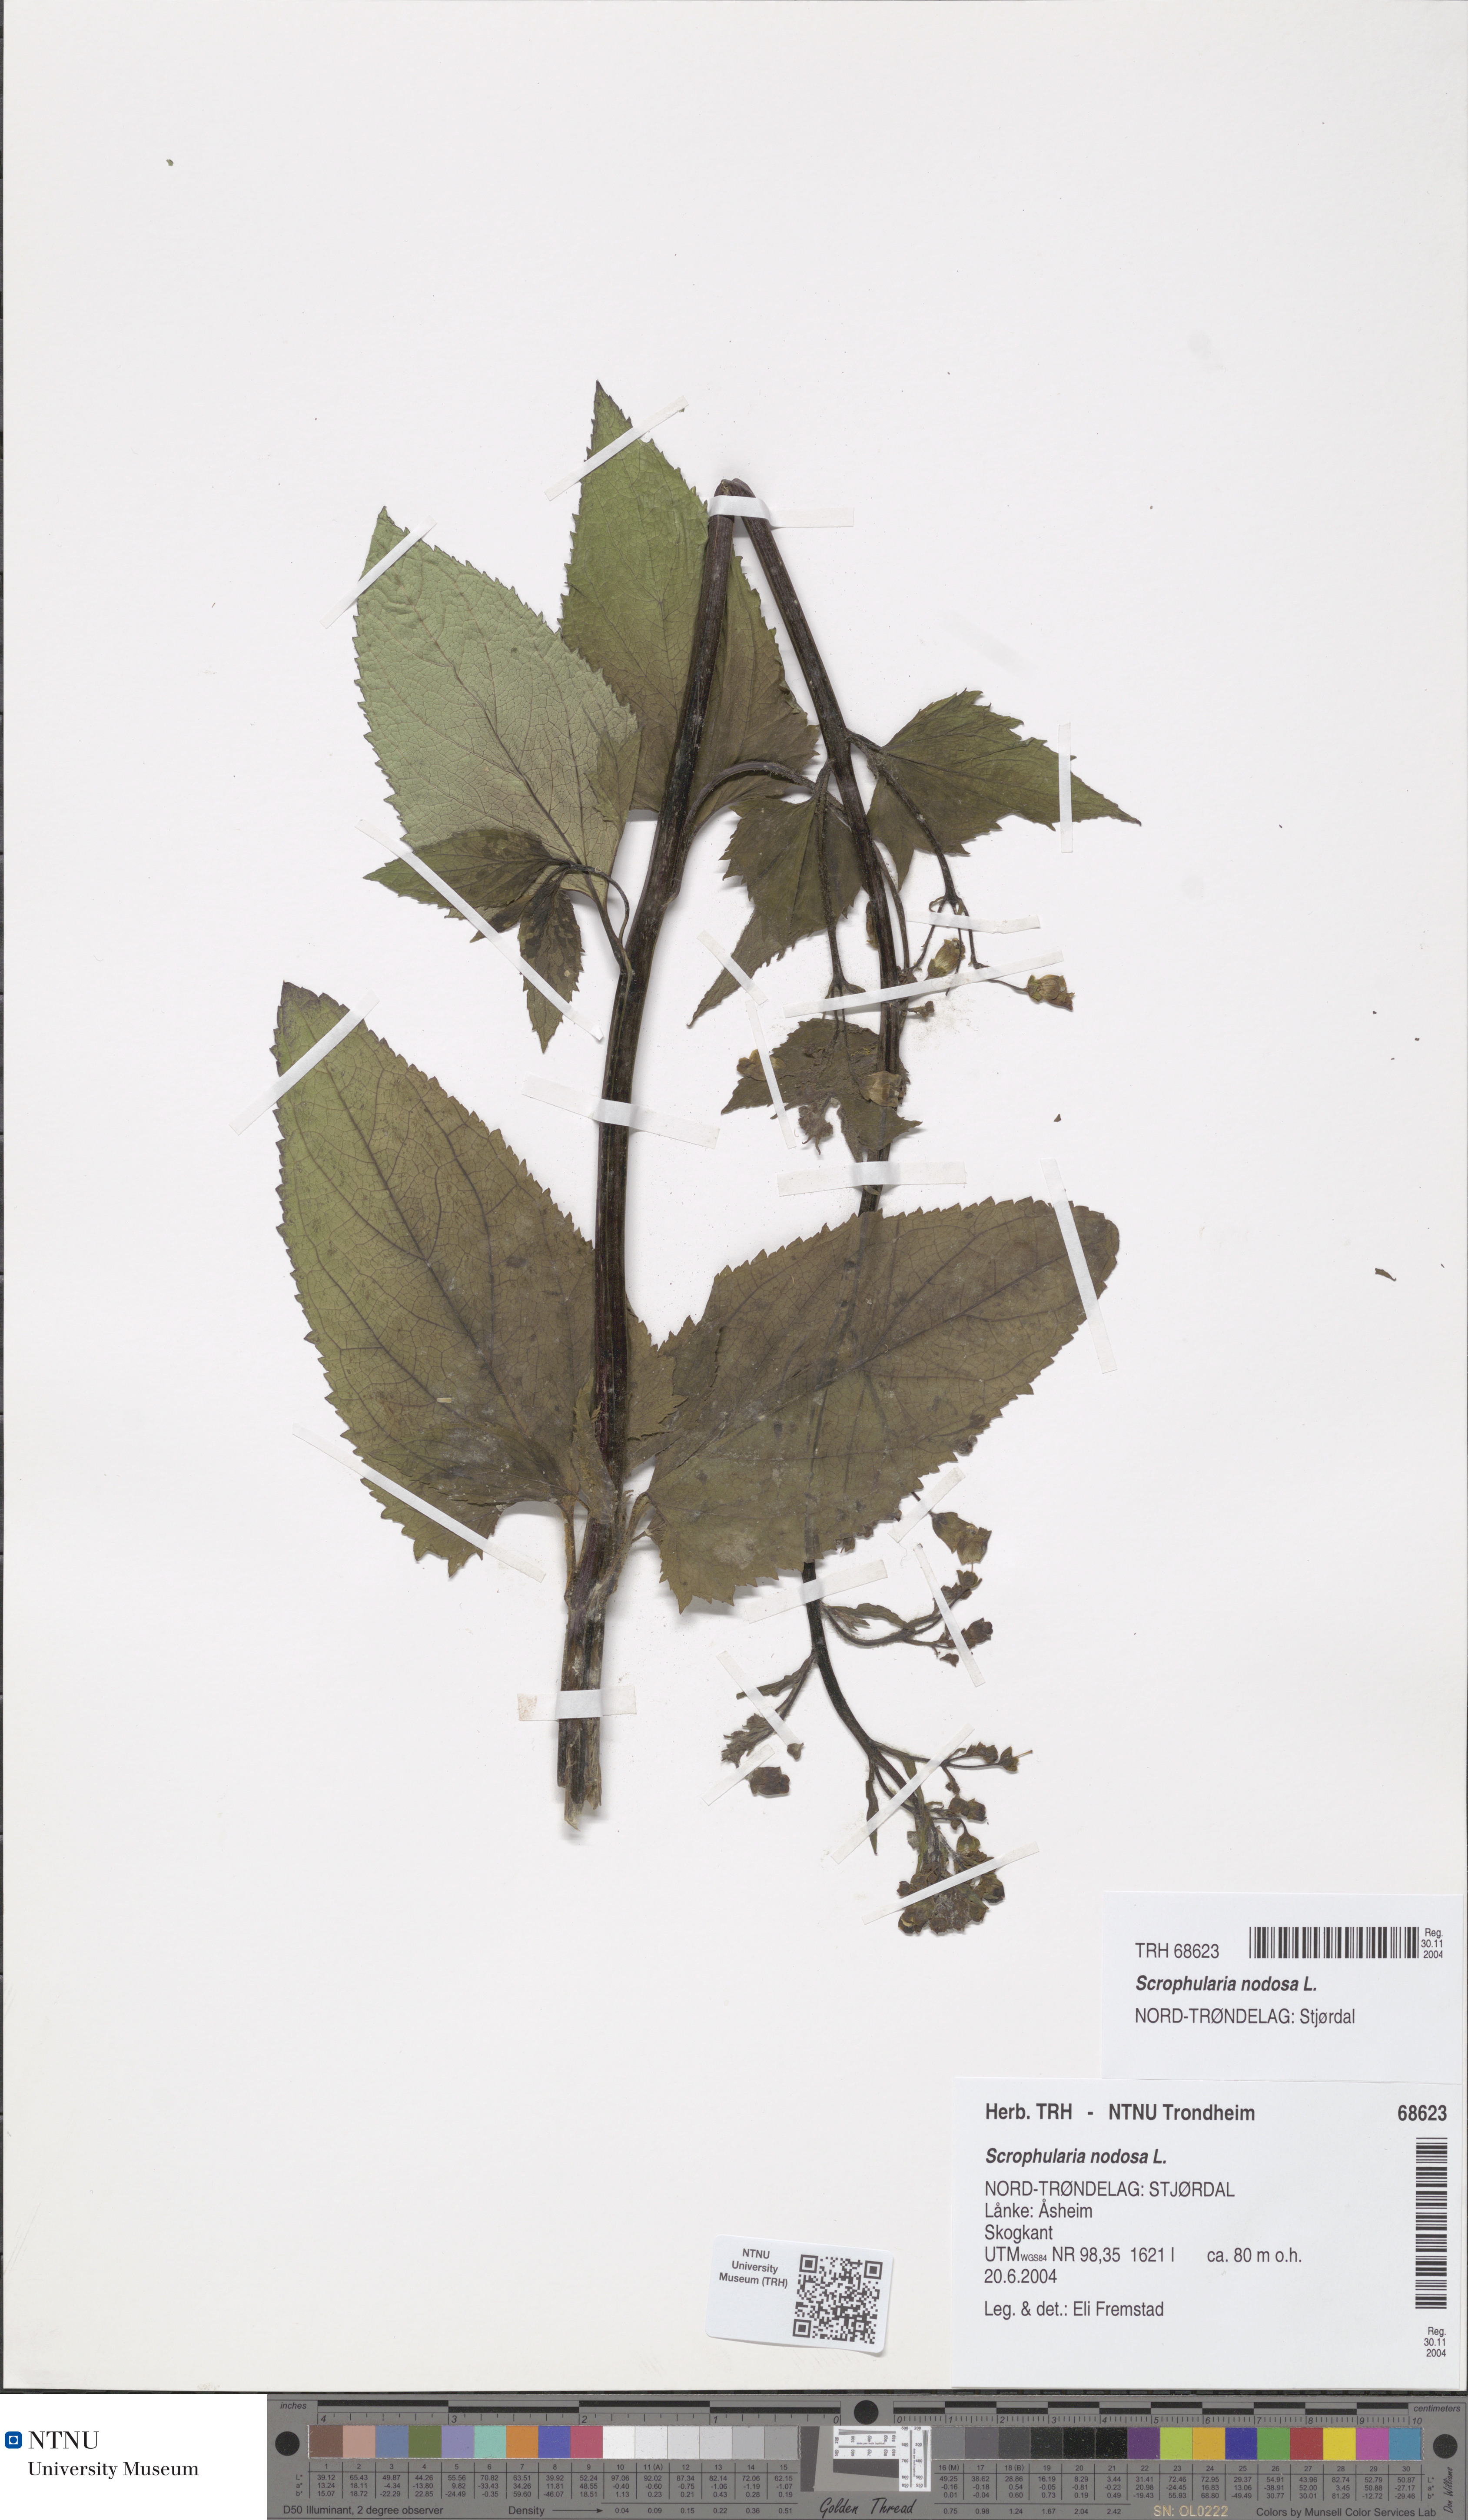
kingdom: Plantae
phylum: Tracheophyta
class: Magnoliopsida
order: Lamiales
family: Scrophulariaceae
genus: Scrophularia
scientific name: Scrophularia nodosa
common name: Common figwort
